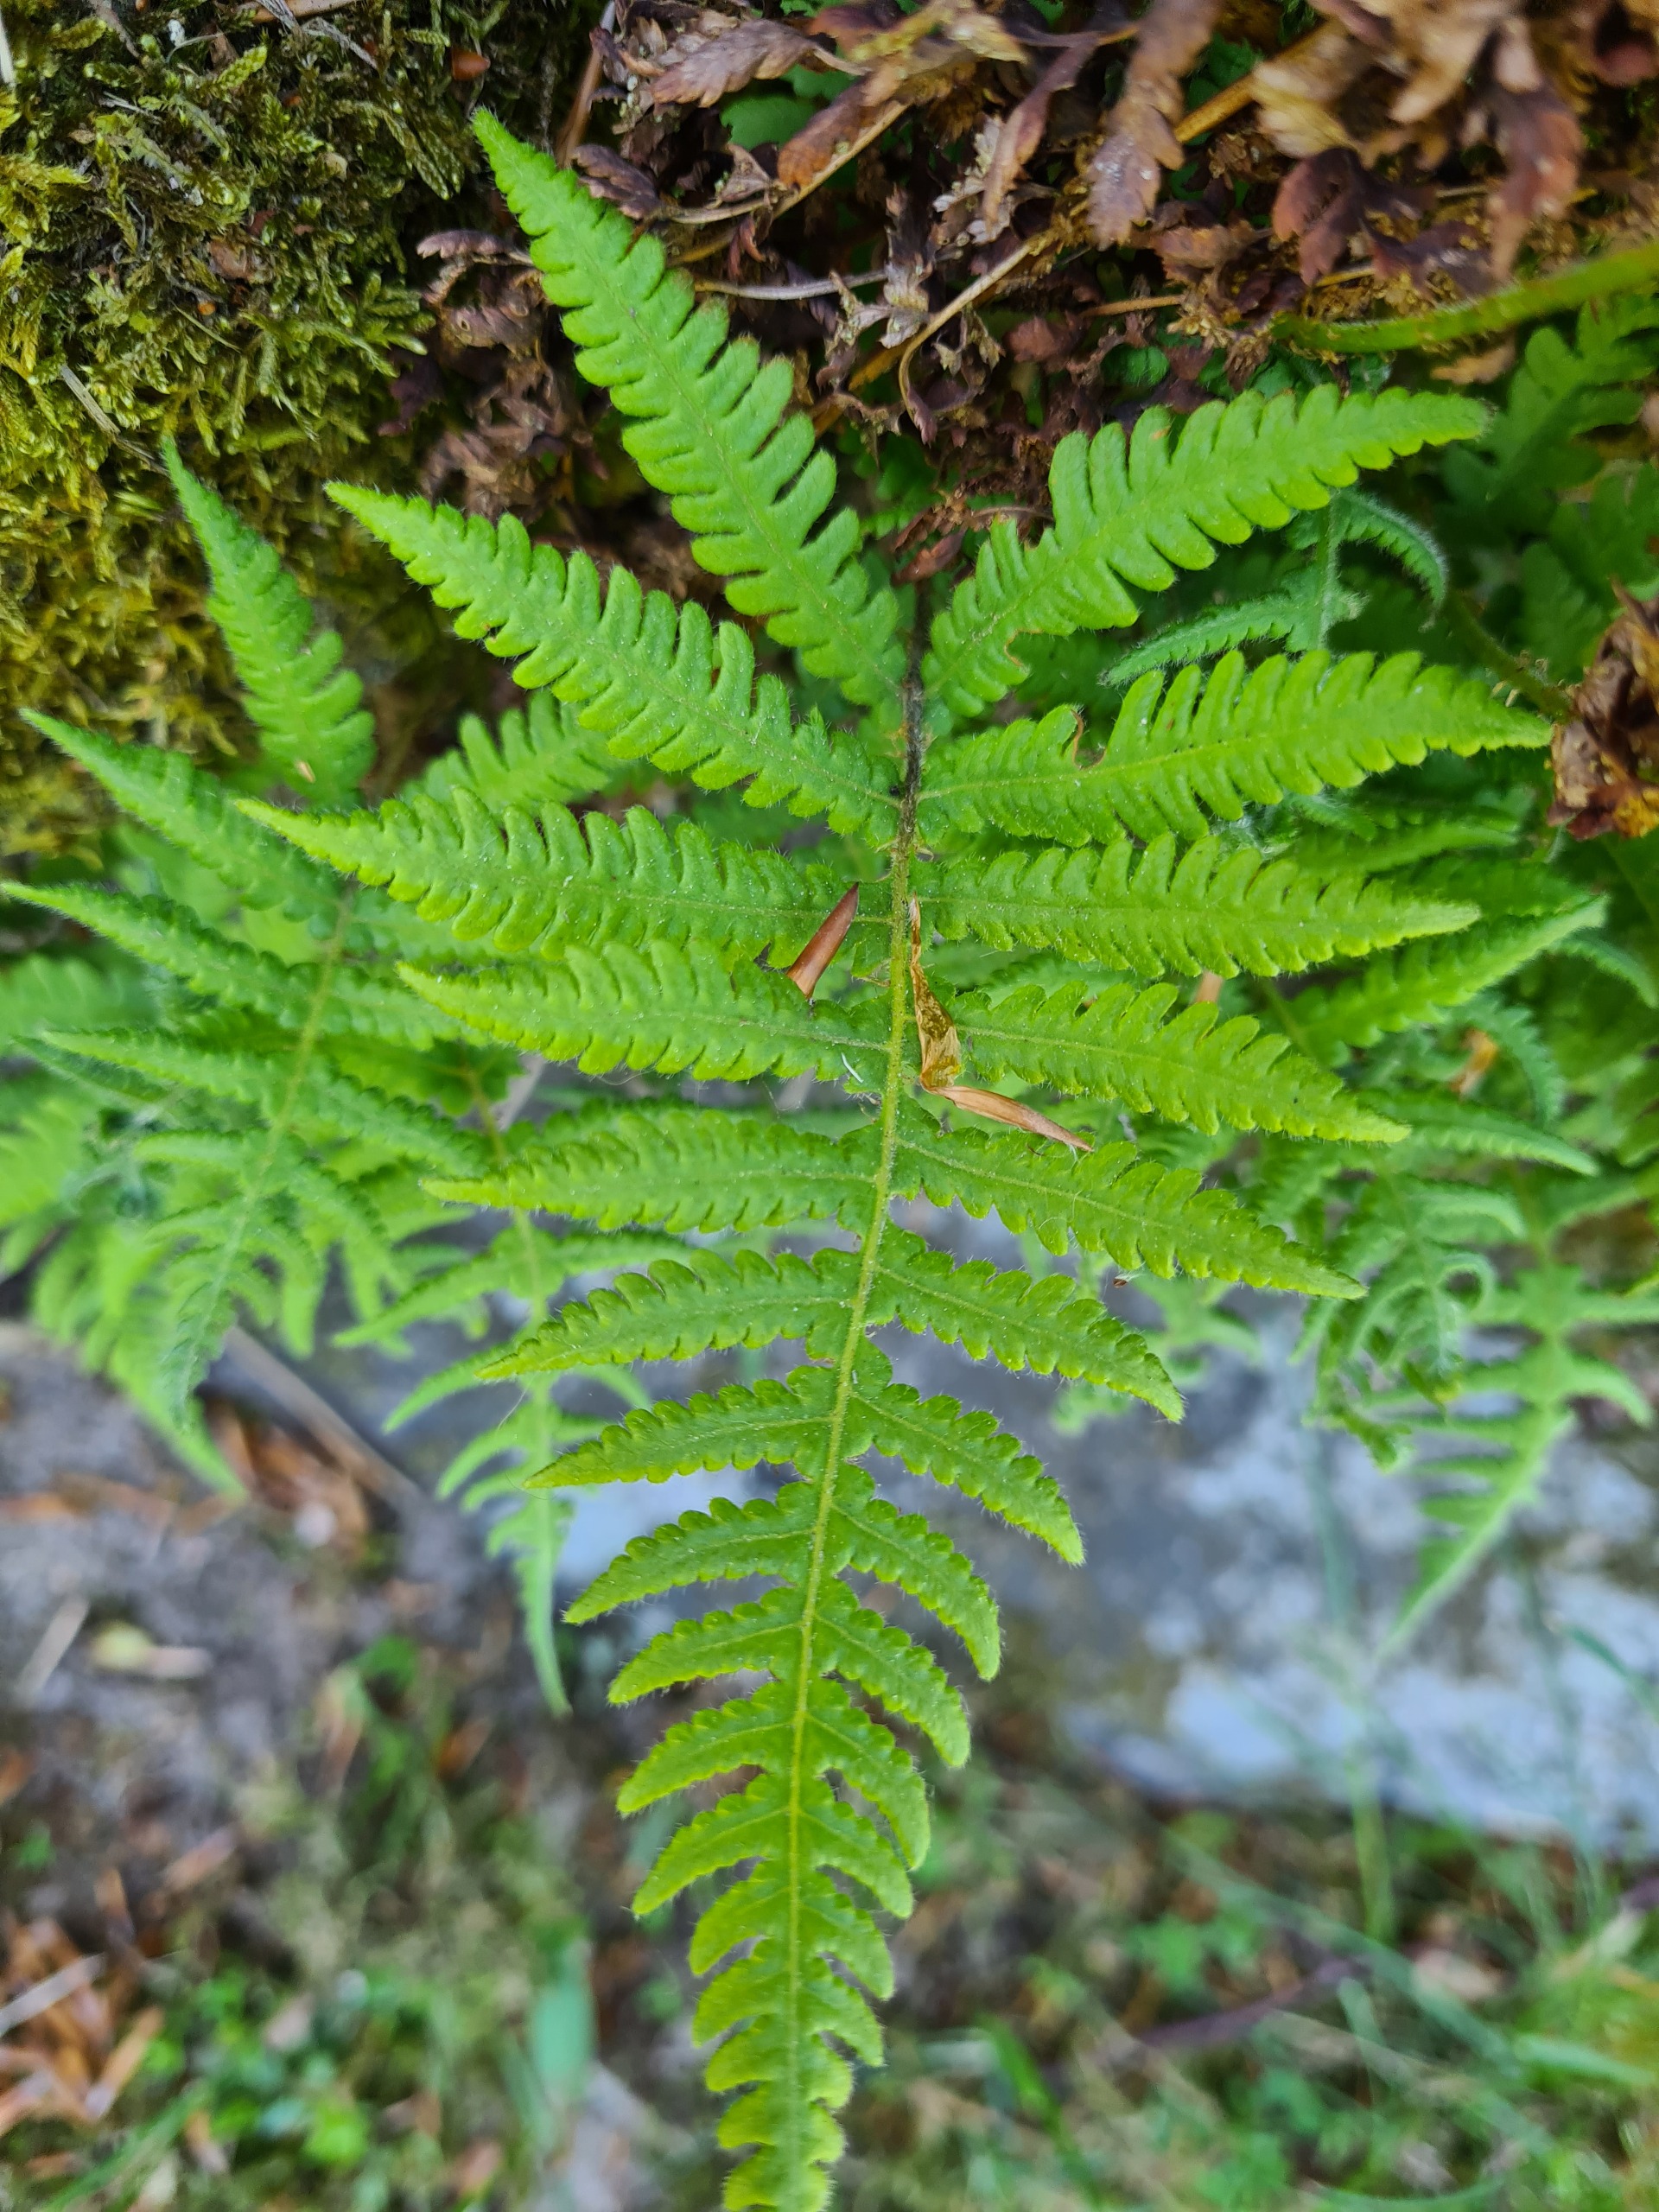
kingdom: Plantae
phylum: Tracheophyta
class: Polypodiopsida
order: Polypodiales
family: Thelypteridaceae
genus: Phegopteris
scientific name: Phegopteris connectilis
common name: Dunet egebregne
